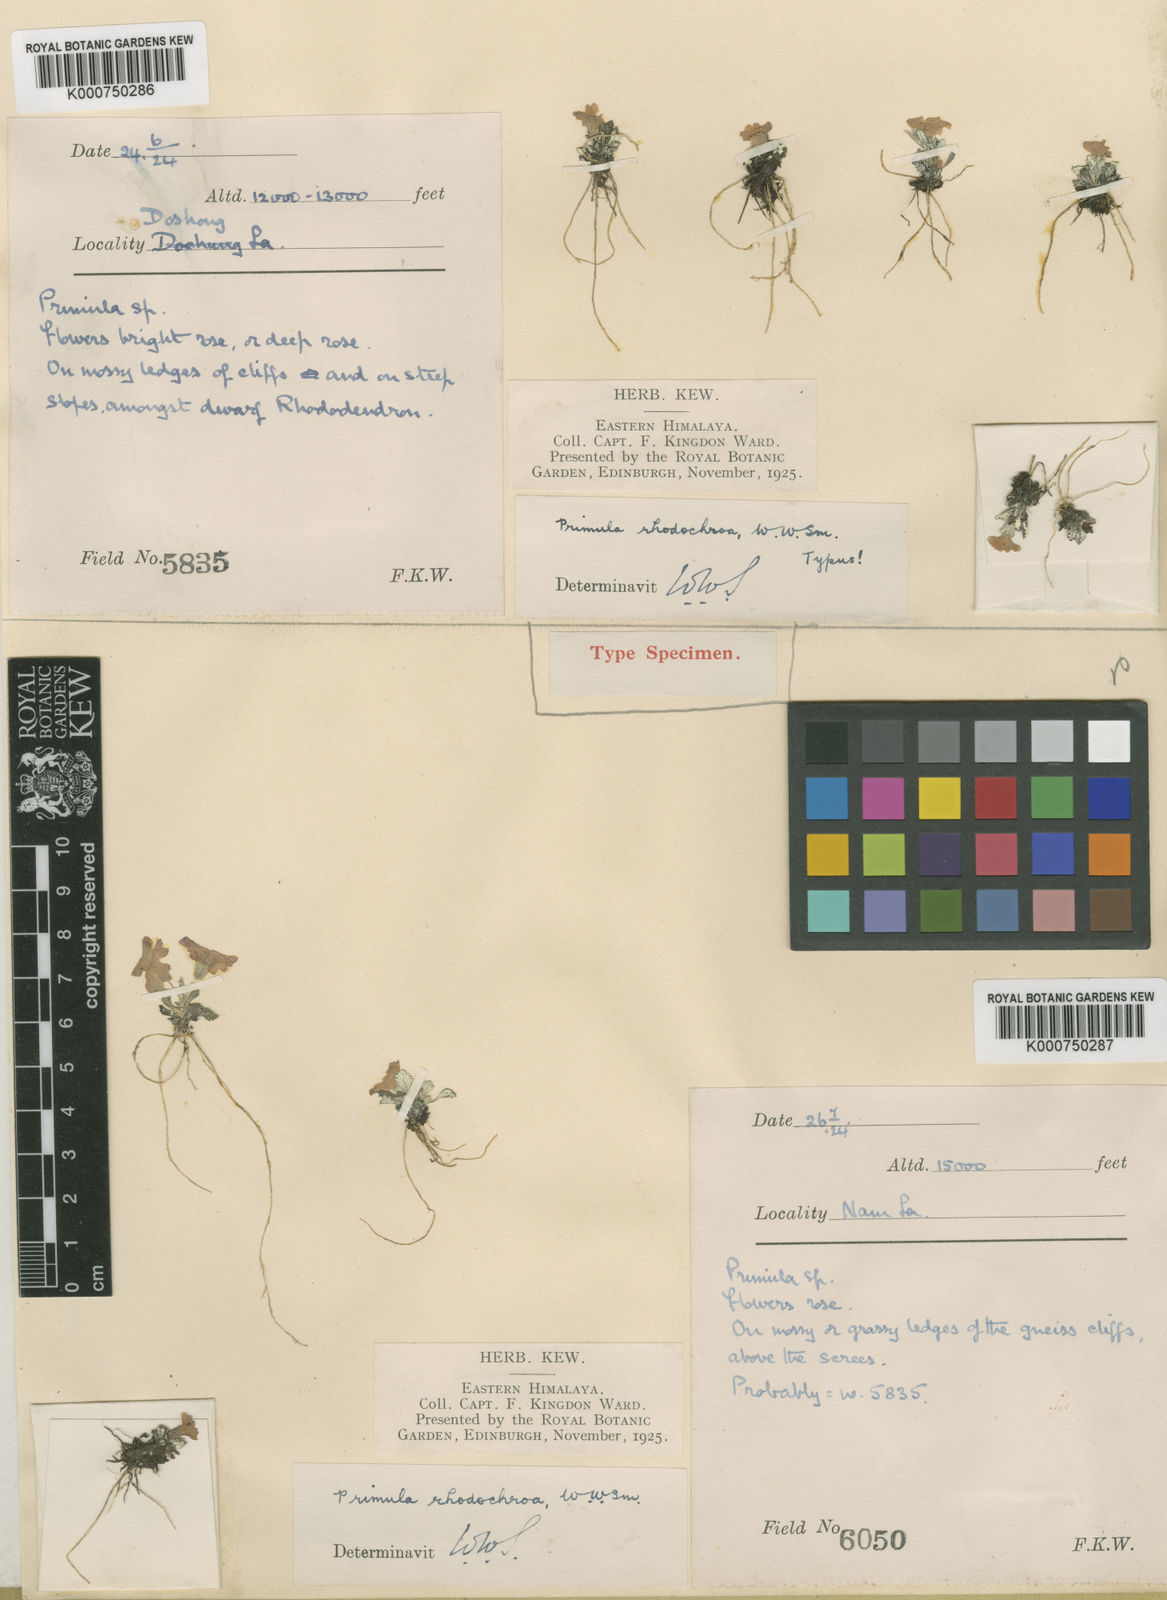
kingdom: Plantae
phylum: Tracheophyta
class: Magnoliopsida
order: Ericales
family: Primulaceae
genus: Primula
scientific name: Primula rhodochroa
